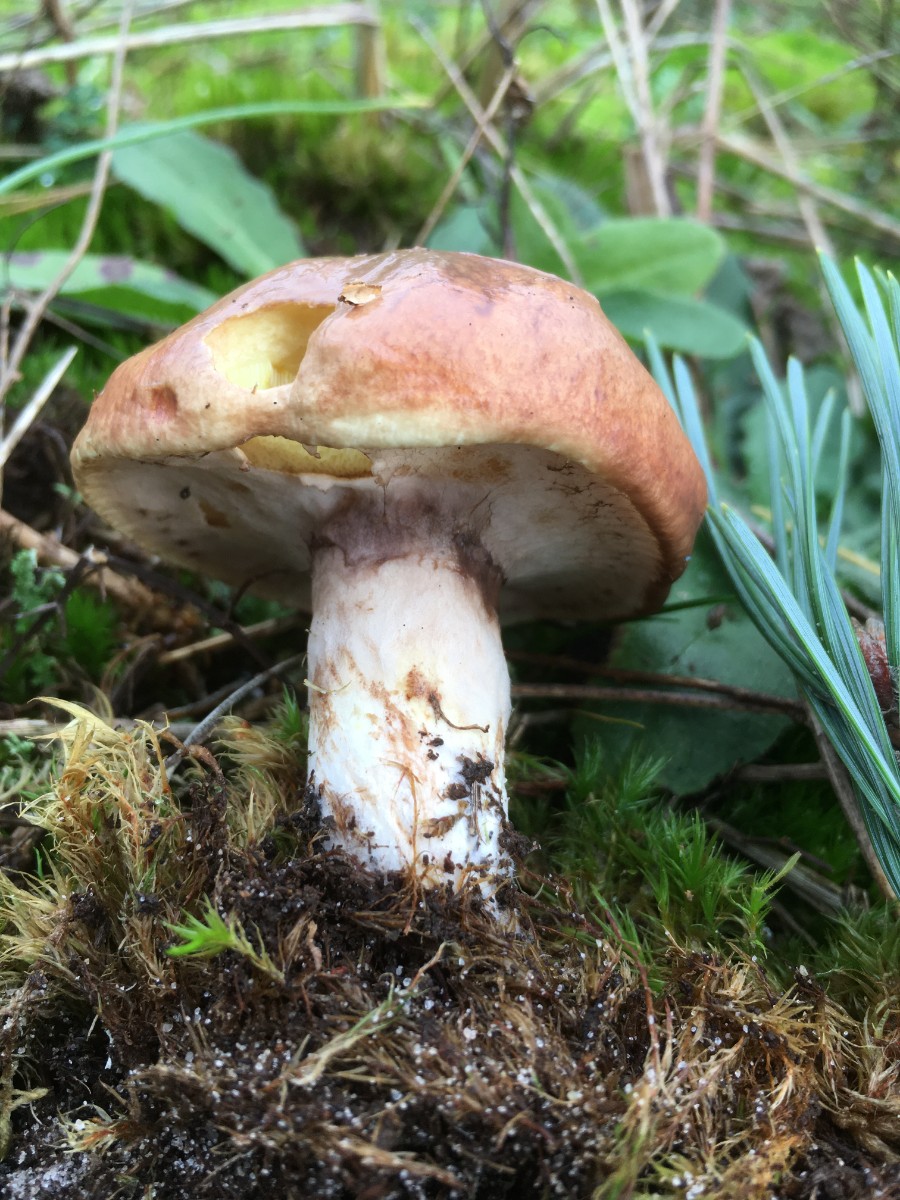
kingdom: Fungi
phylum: Basidiomycota
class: Agaricomycetes
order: Boletales
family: Suillaceae
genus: Suillus
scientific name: Suillus luteus
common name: brungul slimrørhat
